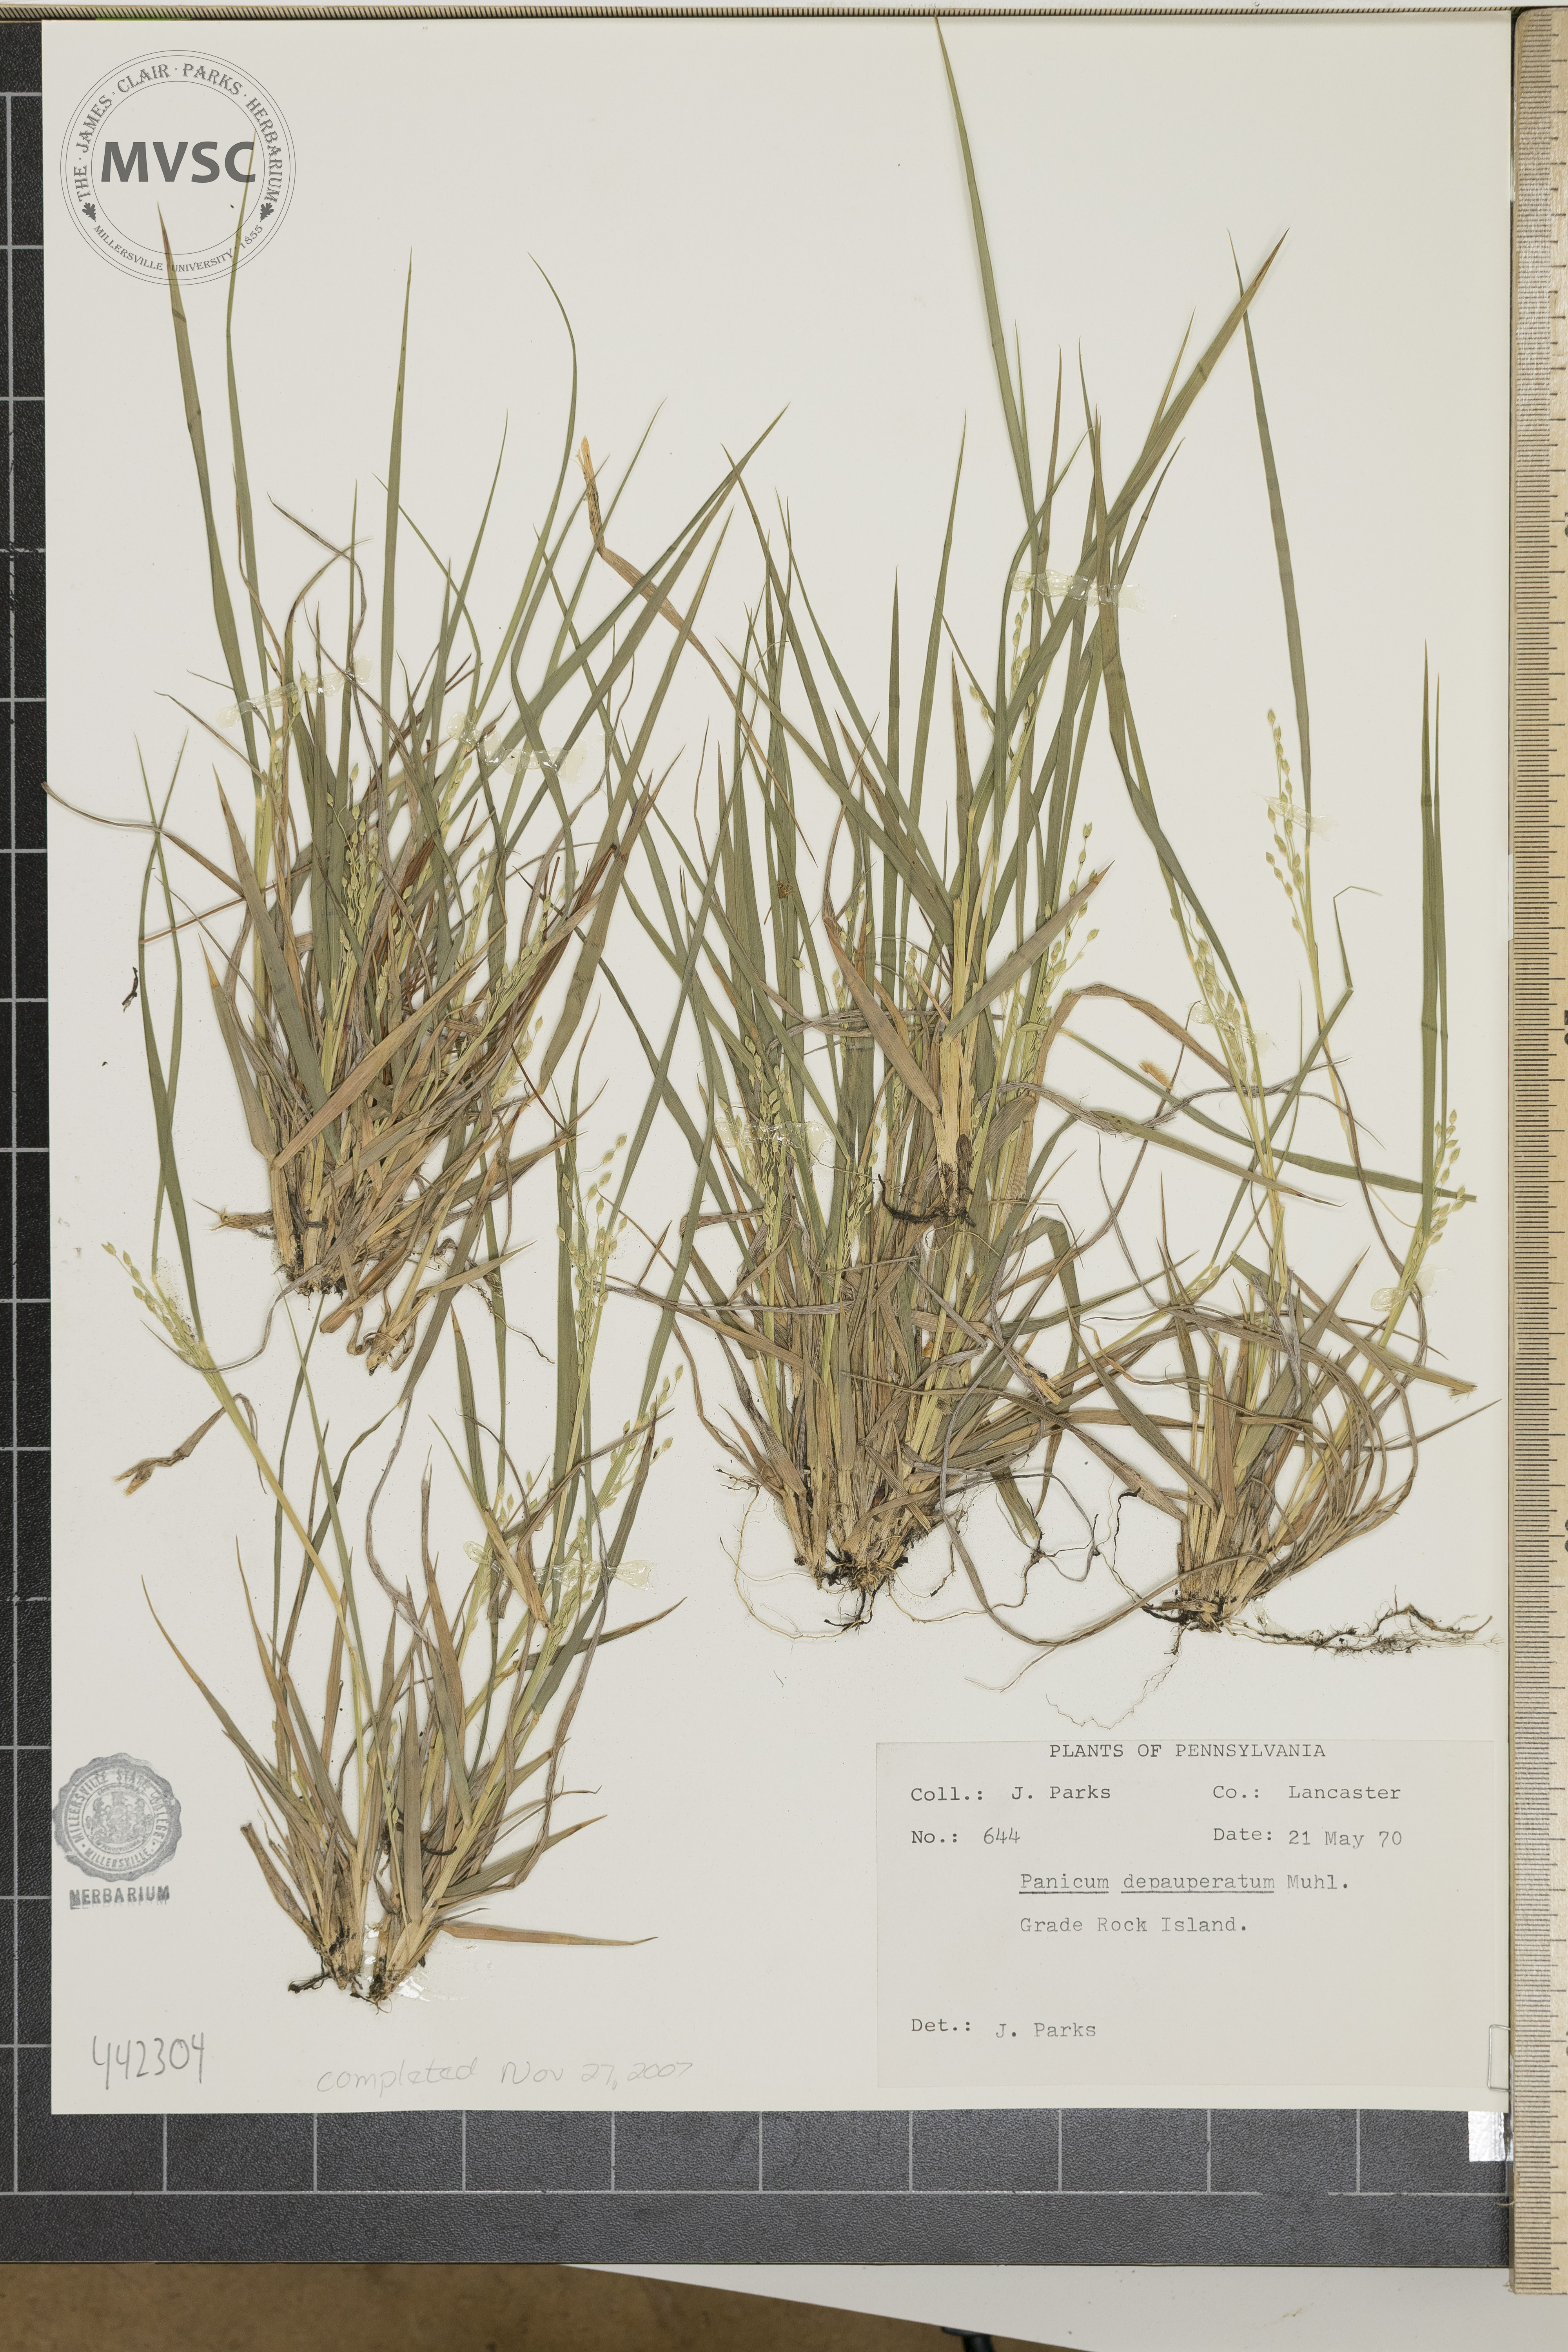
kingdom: Plantae
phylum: Tracheophyta
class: Liliopsida
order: Poales
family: Poaceae
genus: Dichanthelium
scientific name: Dichanthelium depauperatum
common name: Depauperate panicgrass
